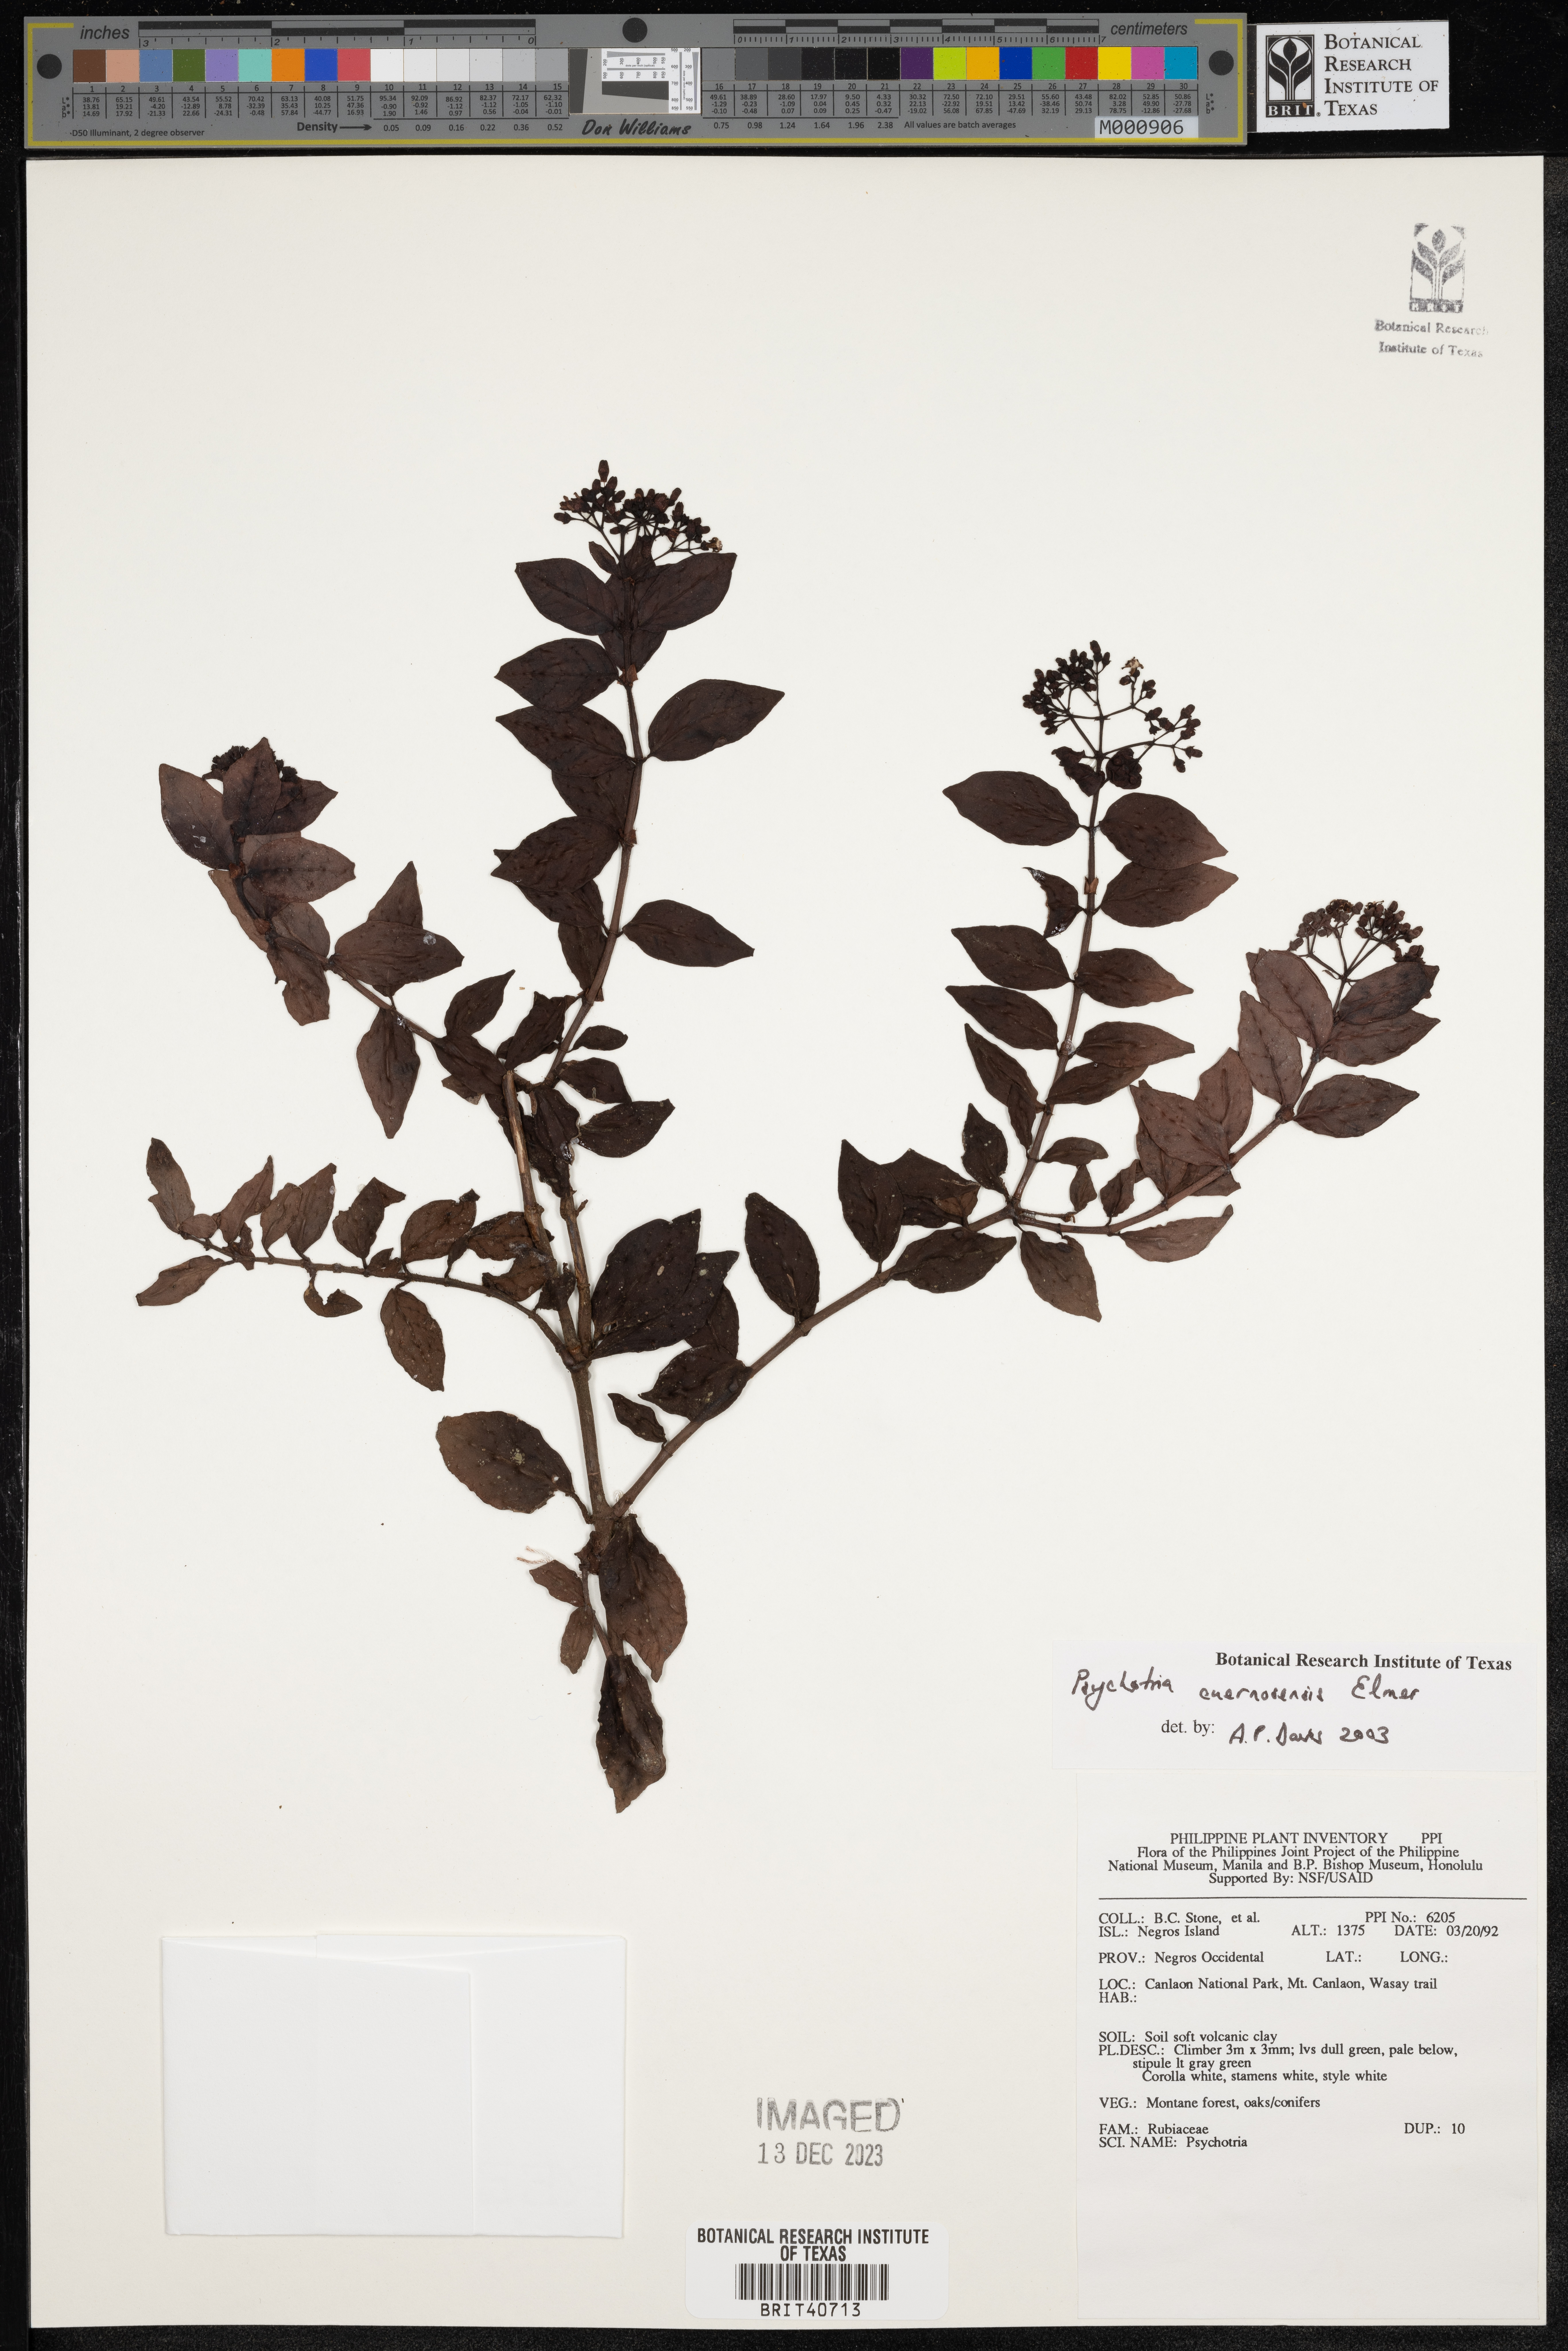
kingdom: Plantae
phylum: Tracheophyta
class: Magnoliopsida
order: Gentianales
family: Rubiaceae
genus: Psychotria
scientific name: Psychotria cuernosensis
